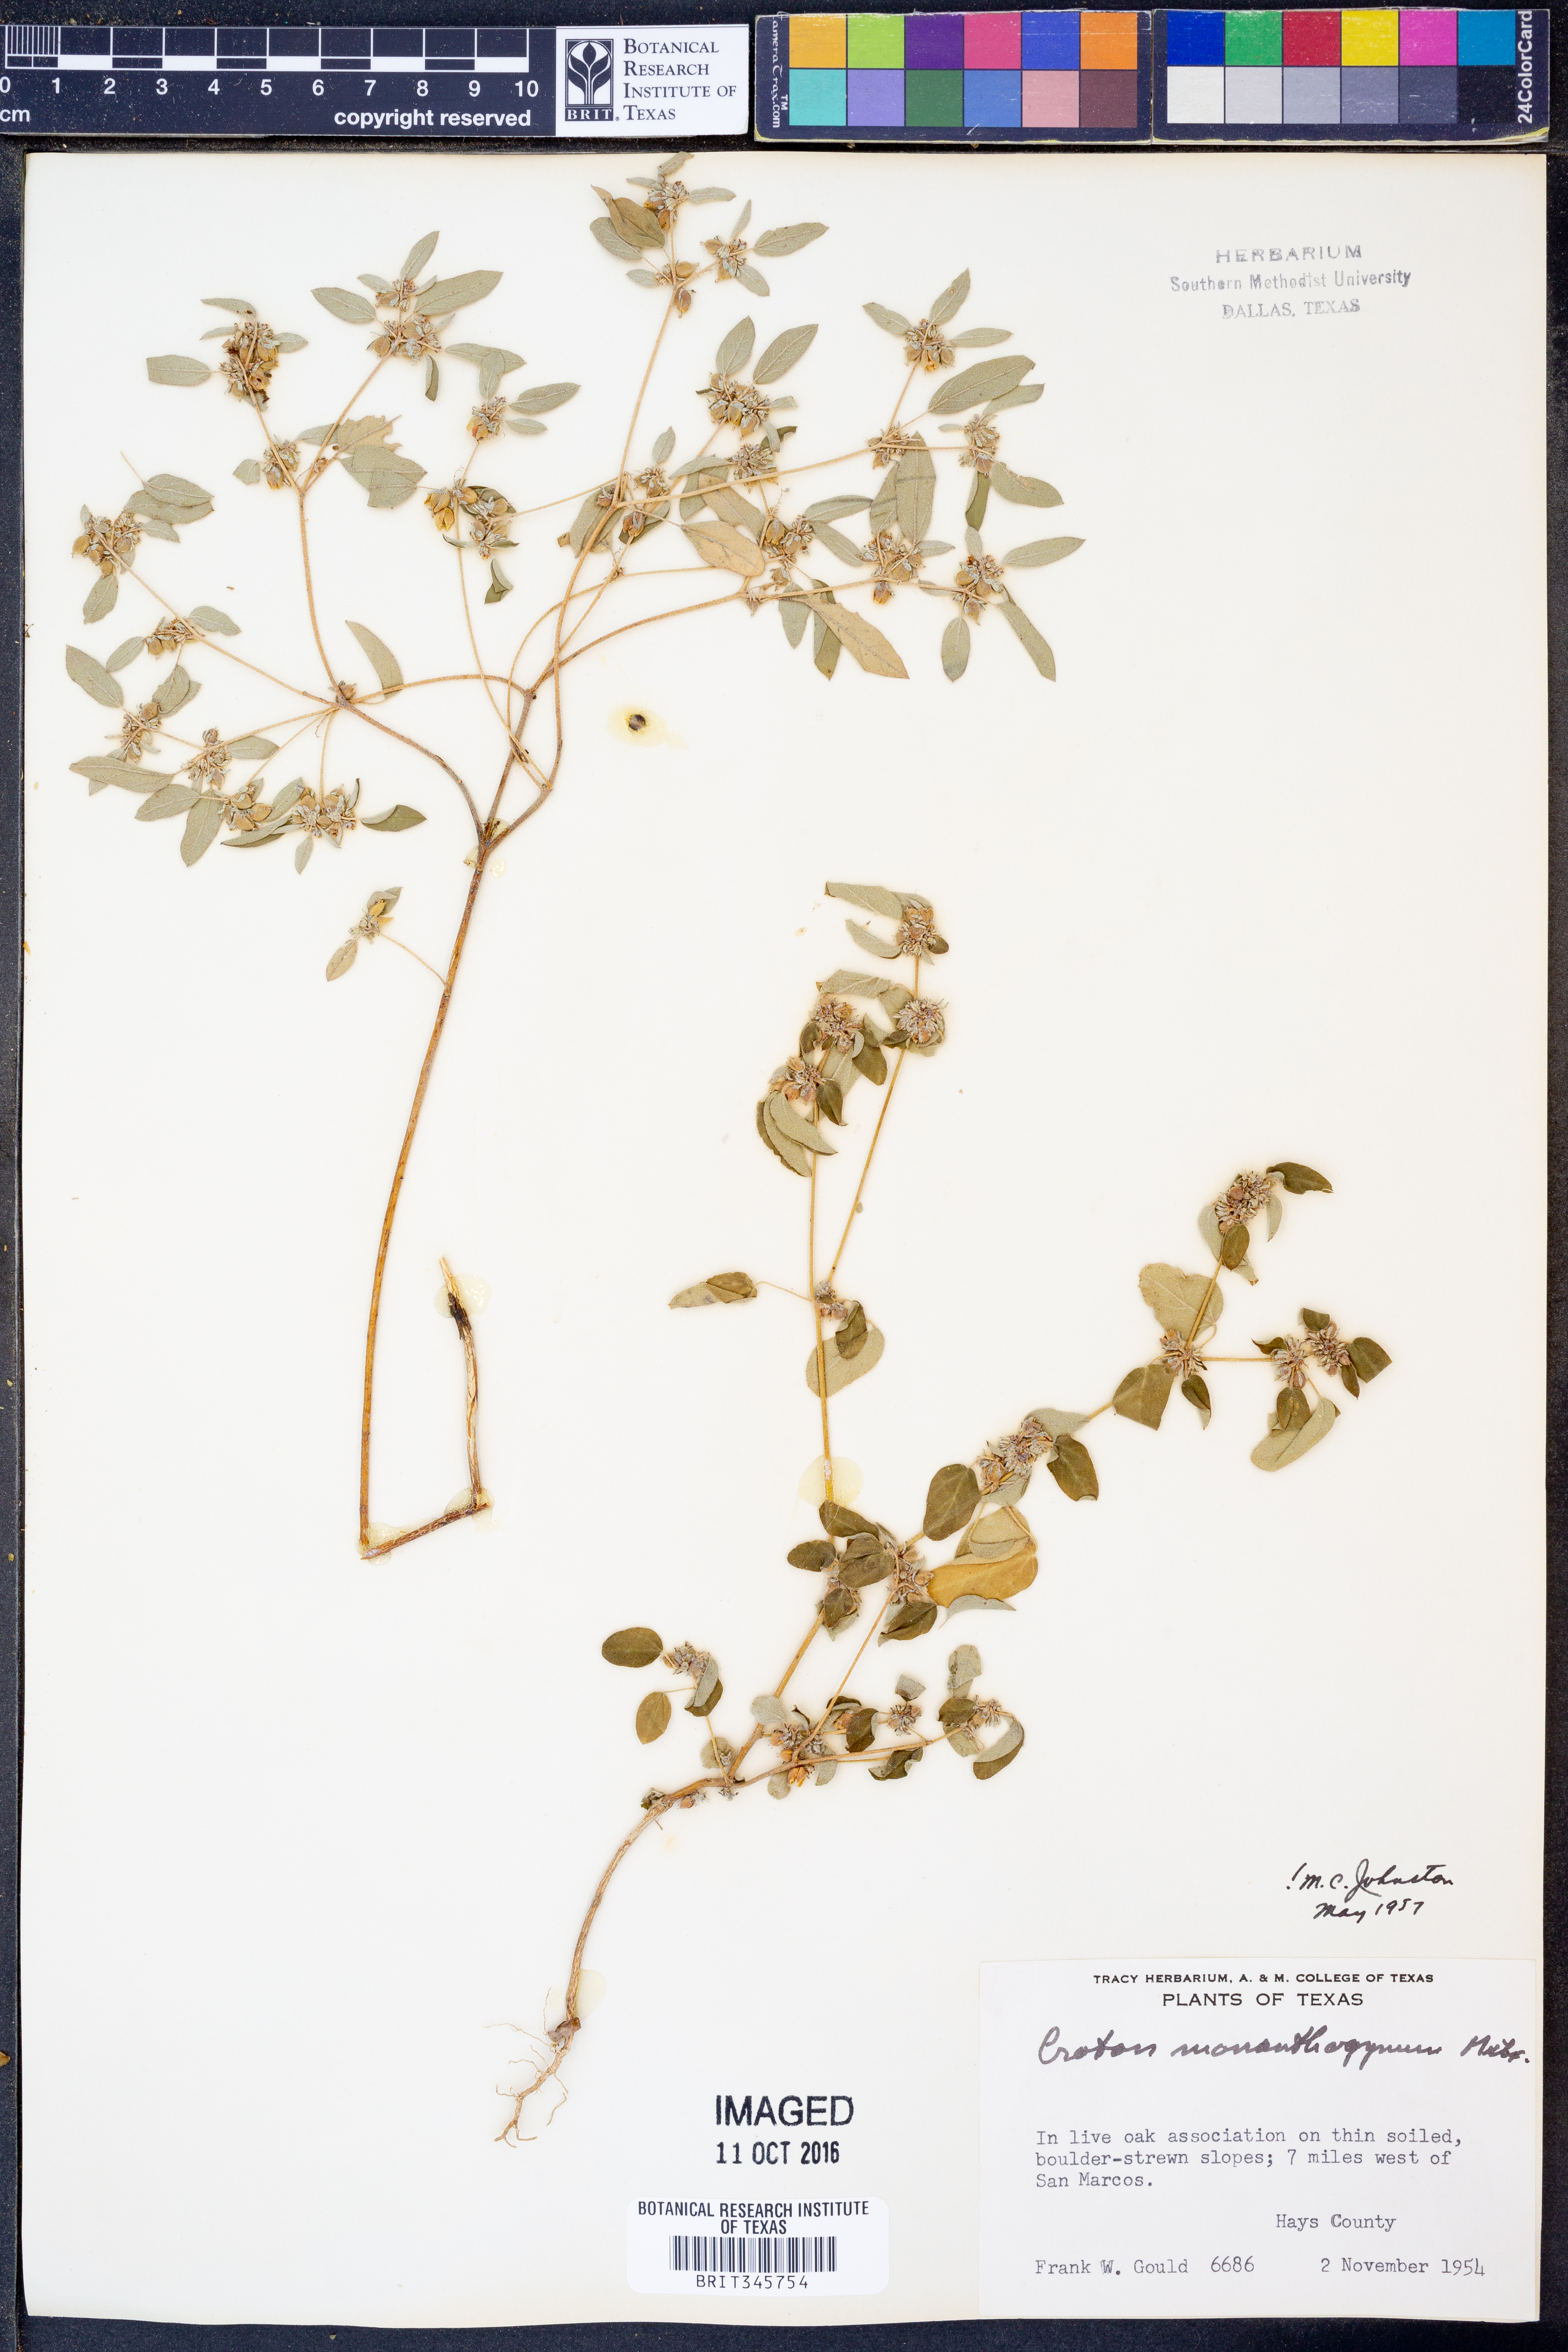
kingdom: Plantae
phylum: Tracheophyta
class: Magnoliopsida
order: Malpighiales
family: Euphorbiaceae
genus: Croton
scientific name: Croton monanthogynus
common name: One-seed croton
